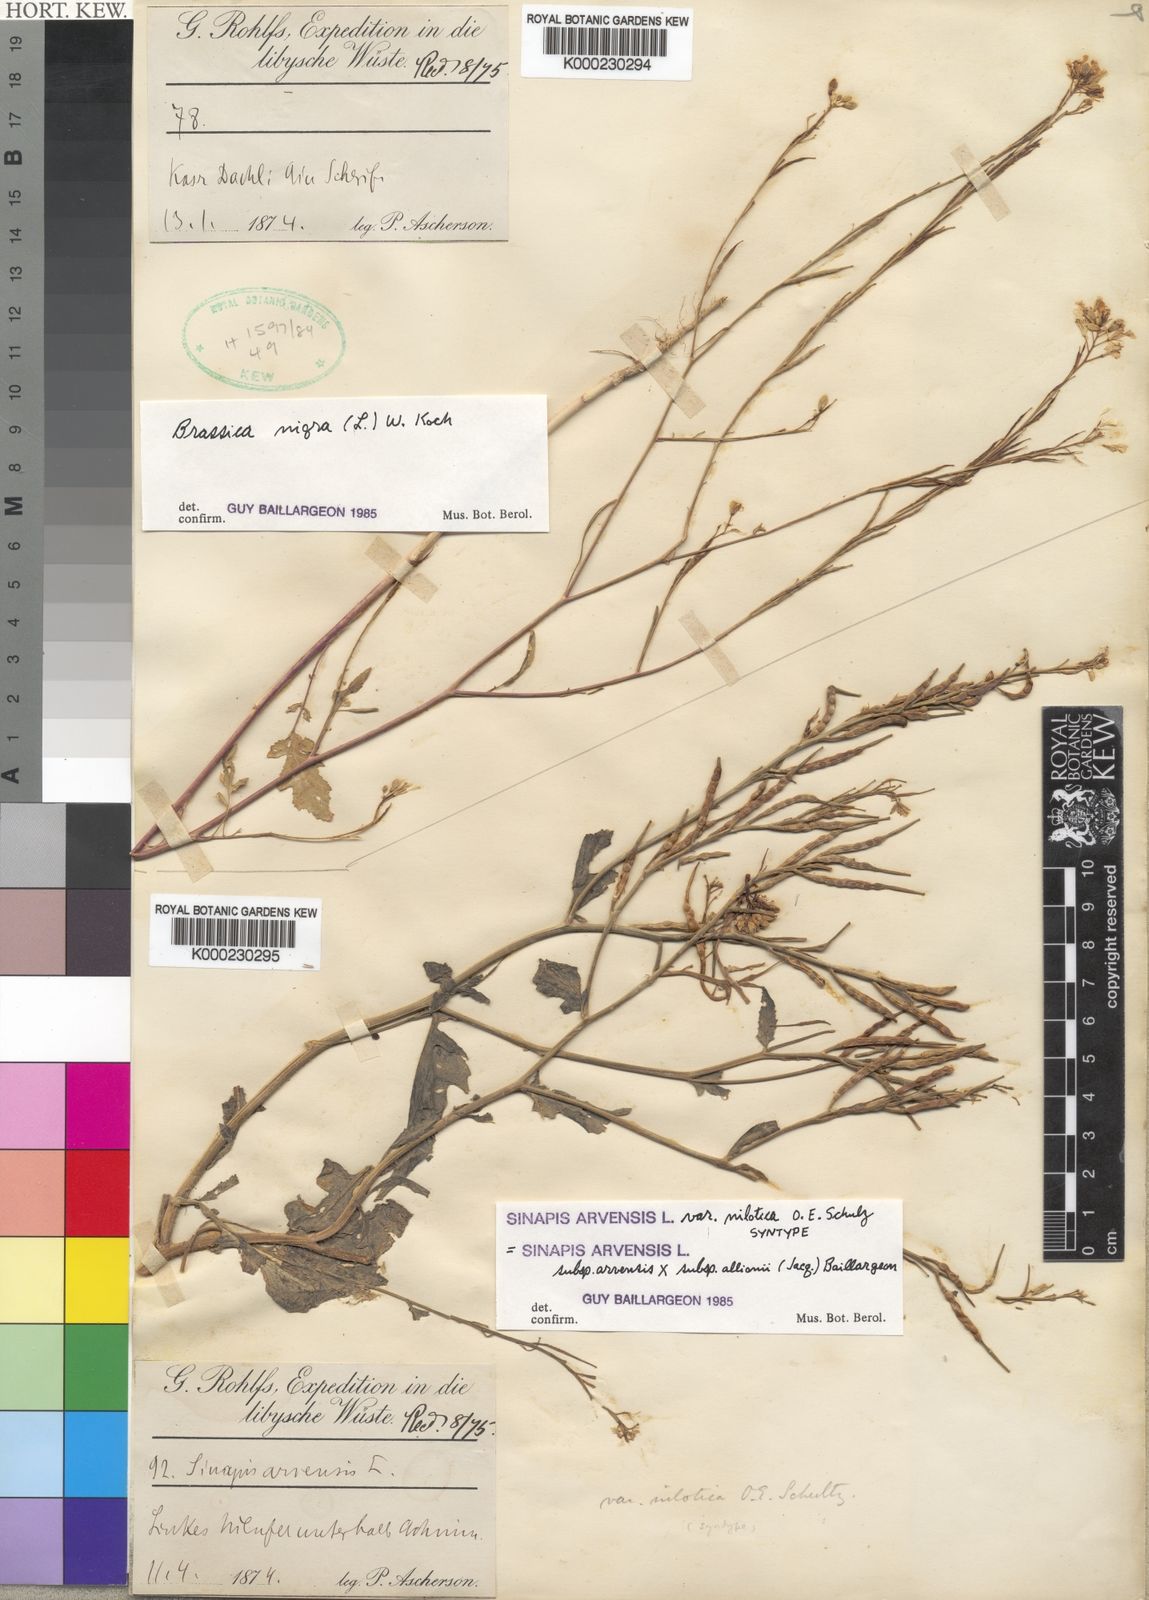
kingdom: Plantae
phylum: Tracheophyta
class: Magnoliopsida
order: Brassicales
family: Brassicaceae
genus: Sinapis
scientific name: Sinapis
